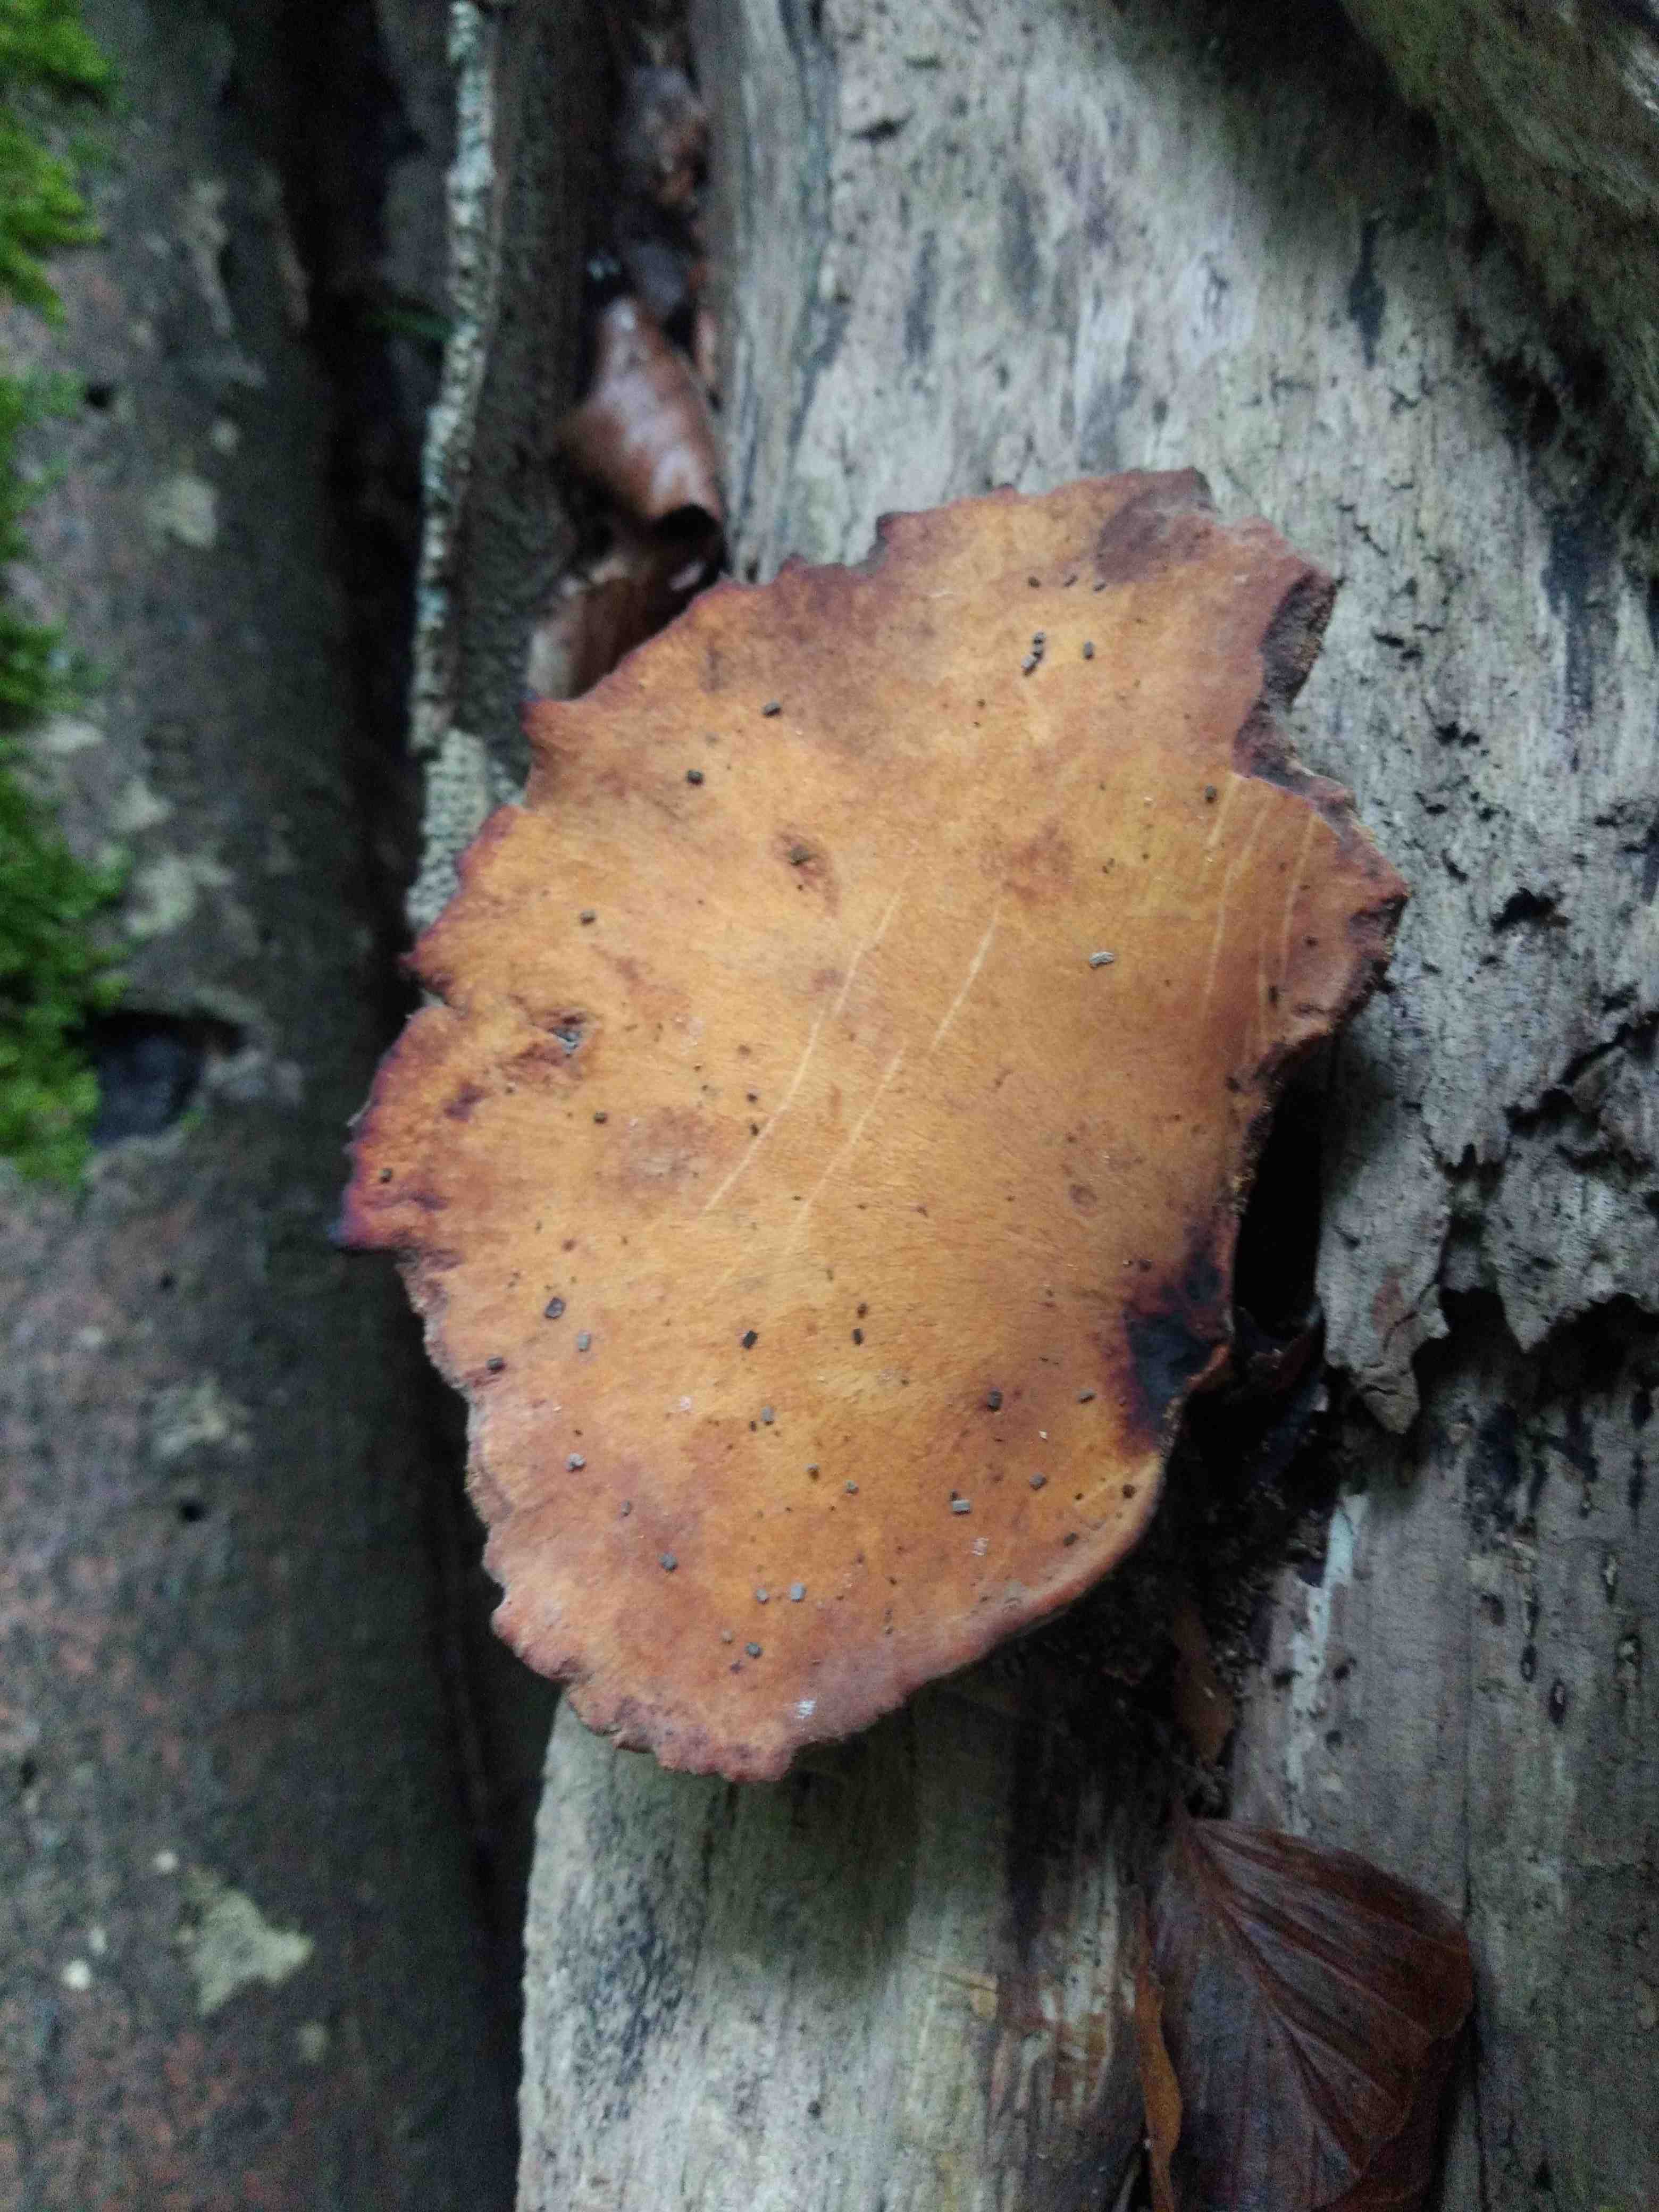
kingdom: Fungi
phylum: Basidiomycota
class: Agaricomycetes
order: Polyporales
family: Polyporaceae
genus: Cerioporus
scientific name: Cerioporus varius
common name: foranderlig stilkporesvamp
